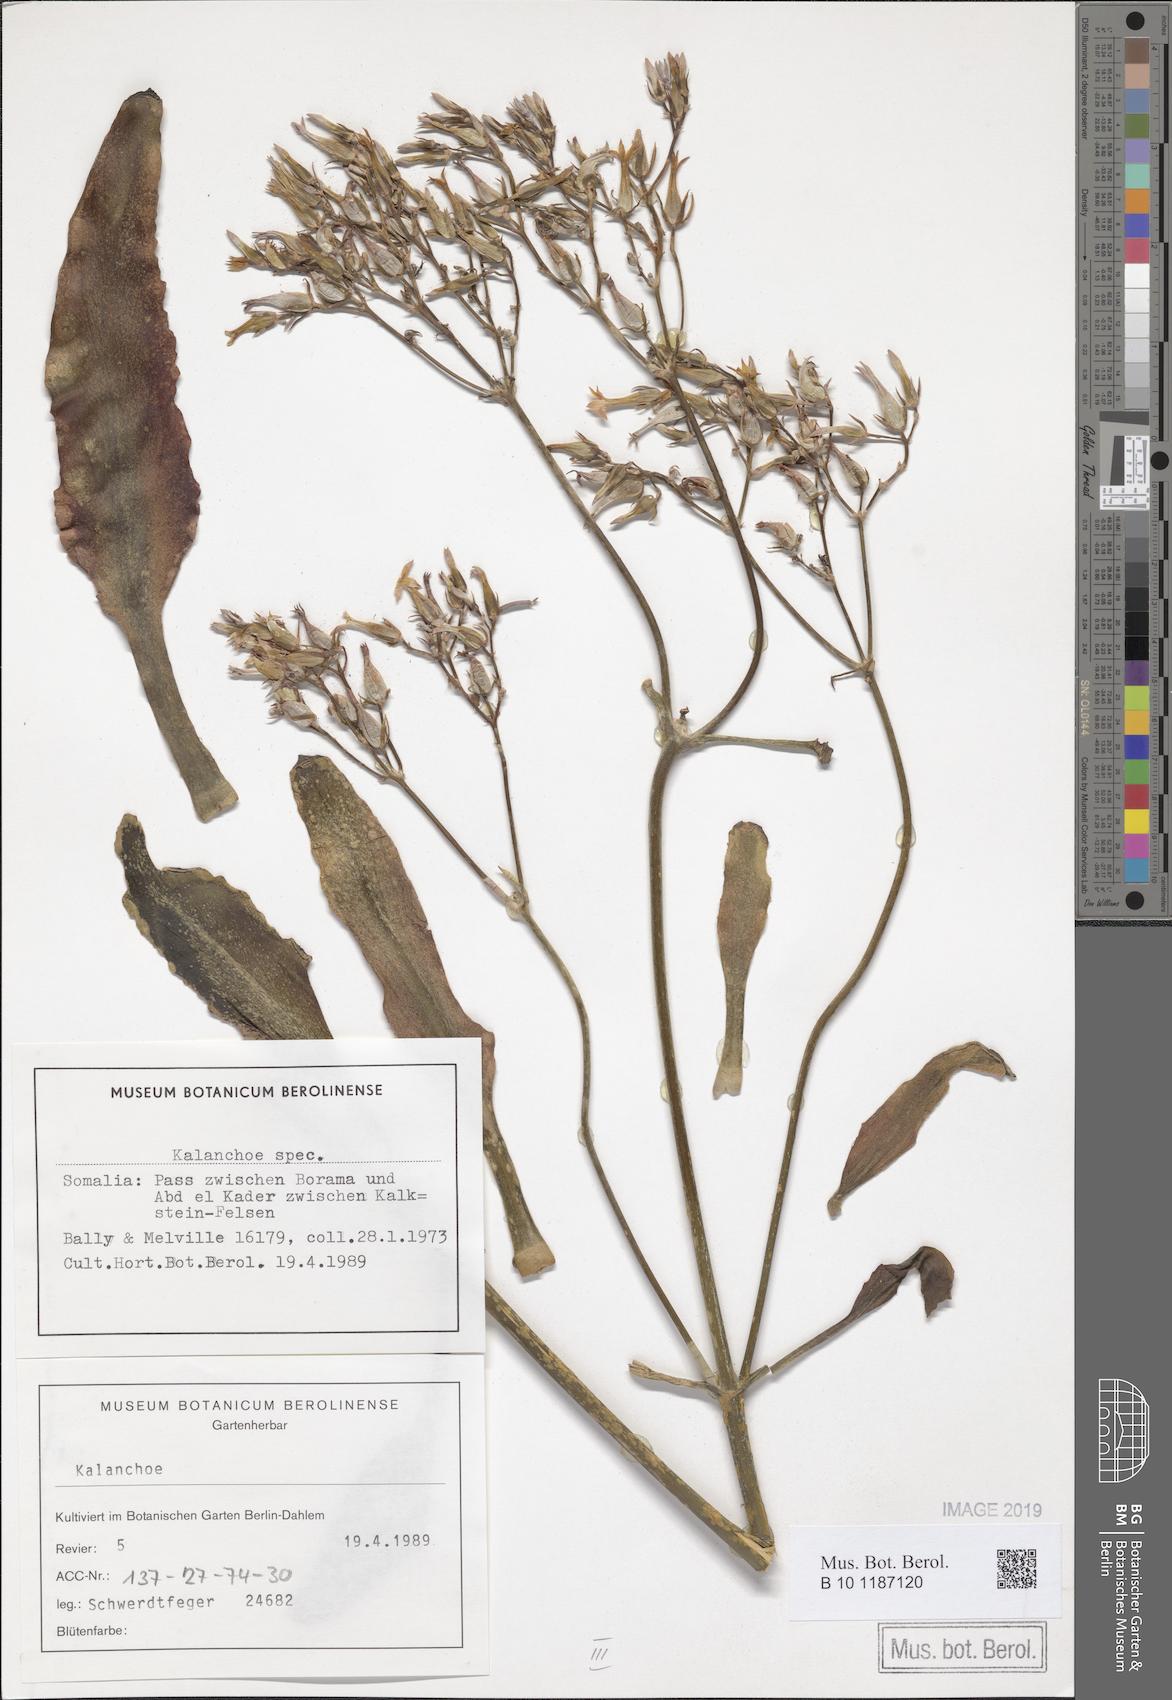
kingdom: Plantae
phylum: Tracheophyta
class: Magnoliopsida
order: Saxifragales
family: Crassulaceae
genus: Kalanchoe
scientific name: Kalanchoe
